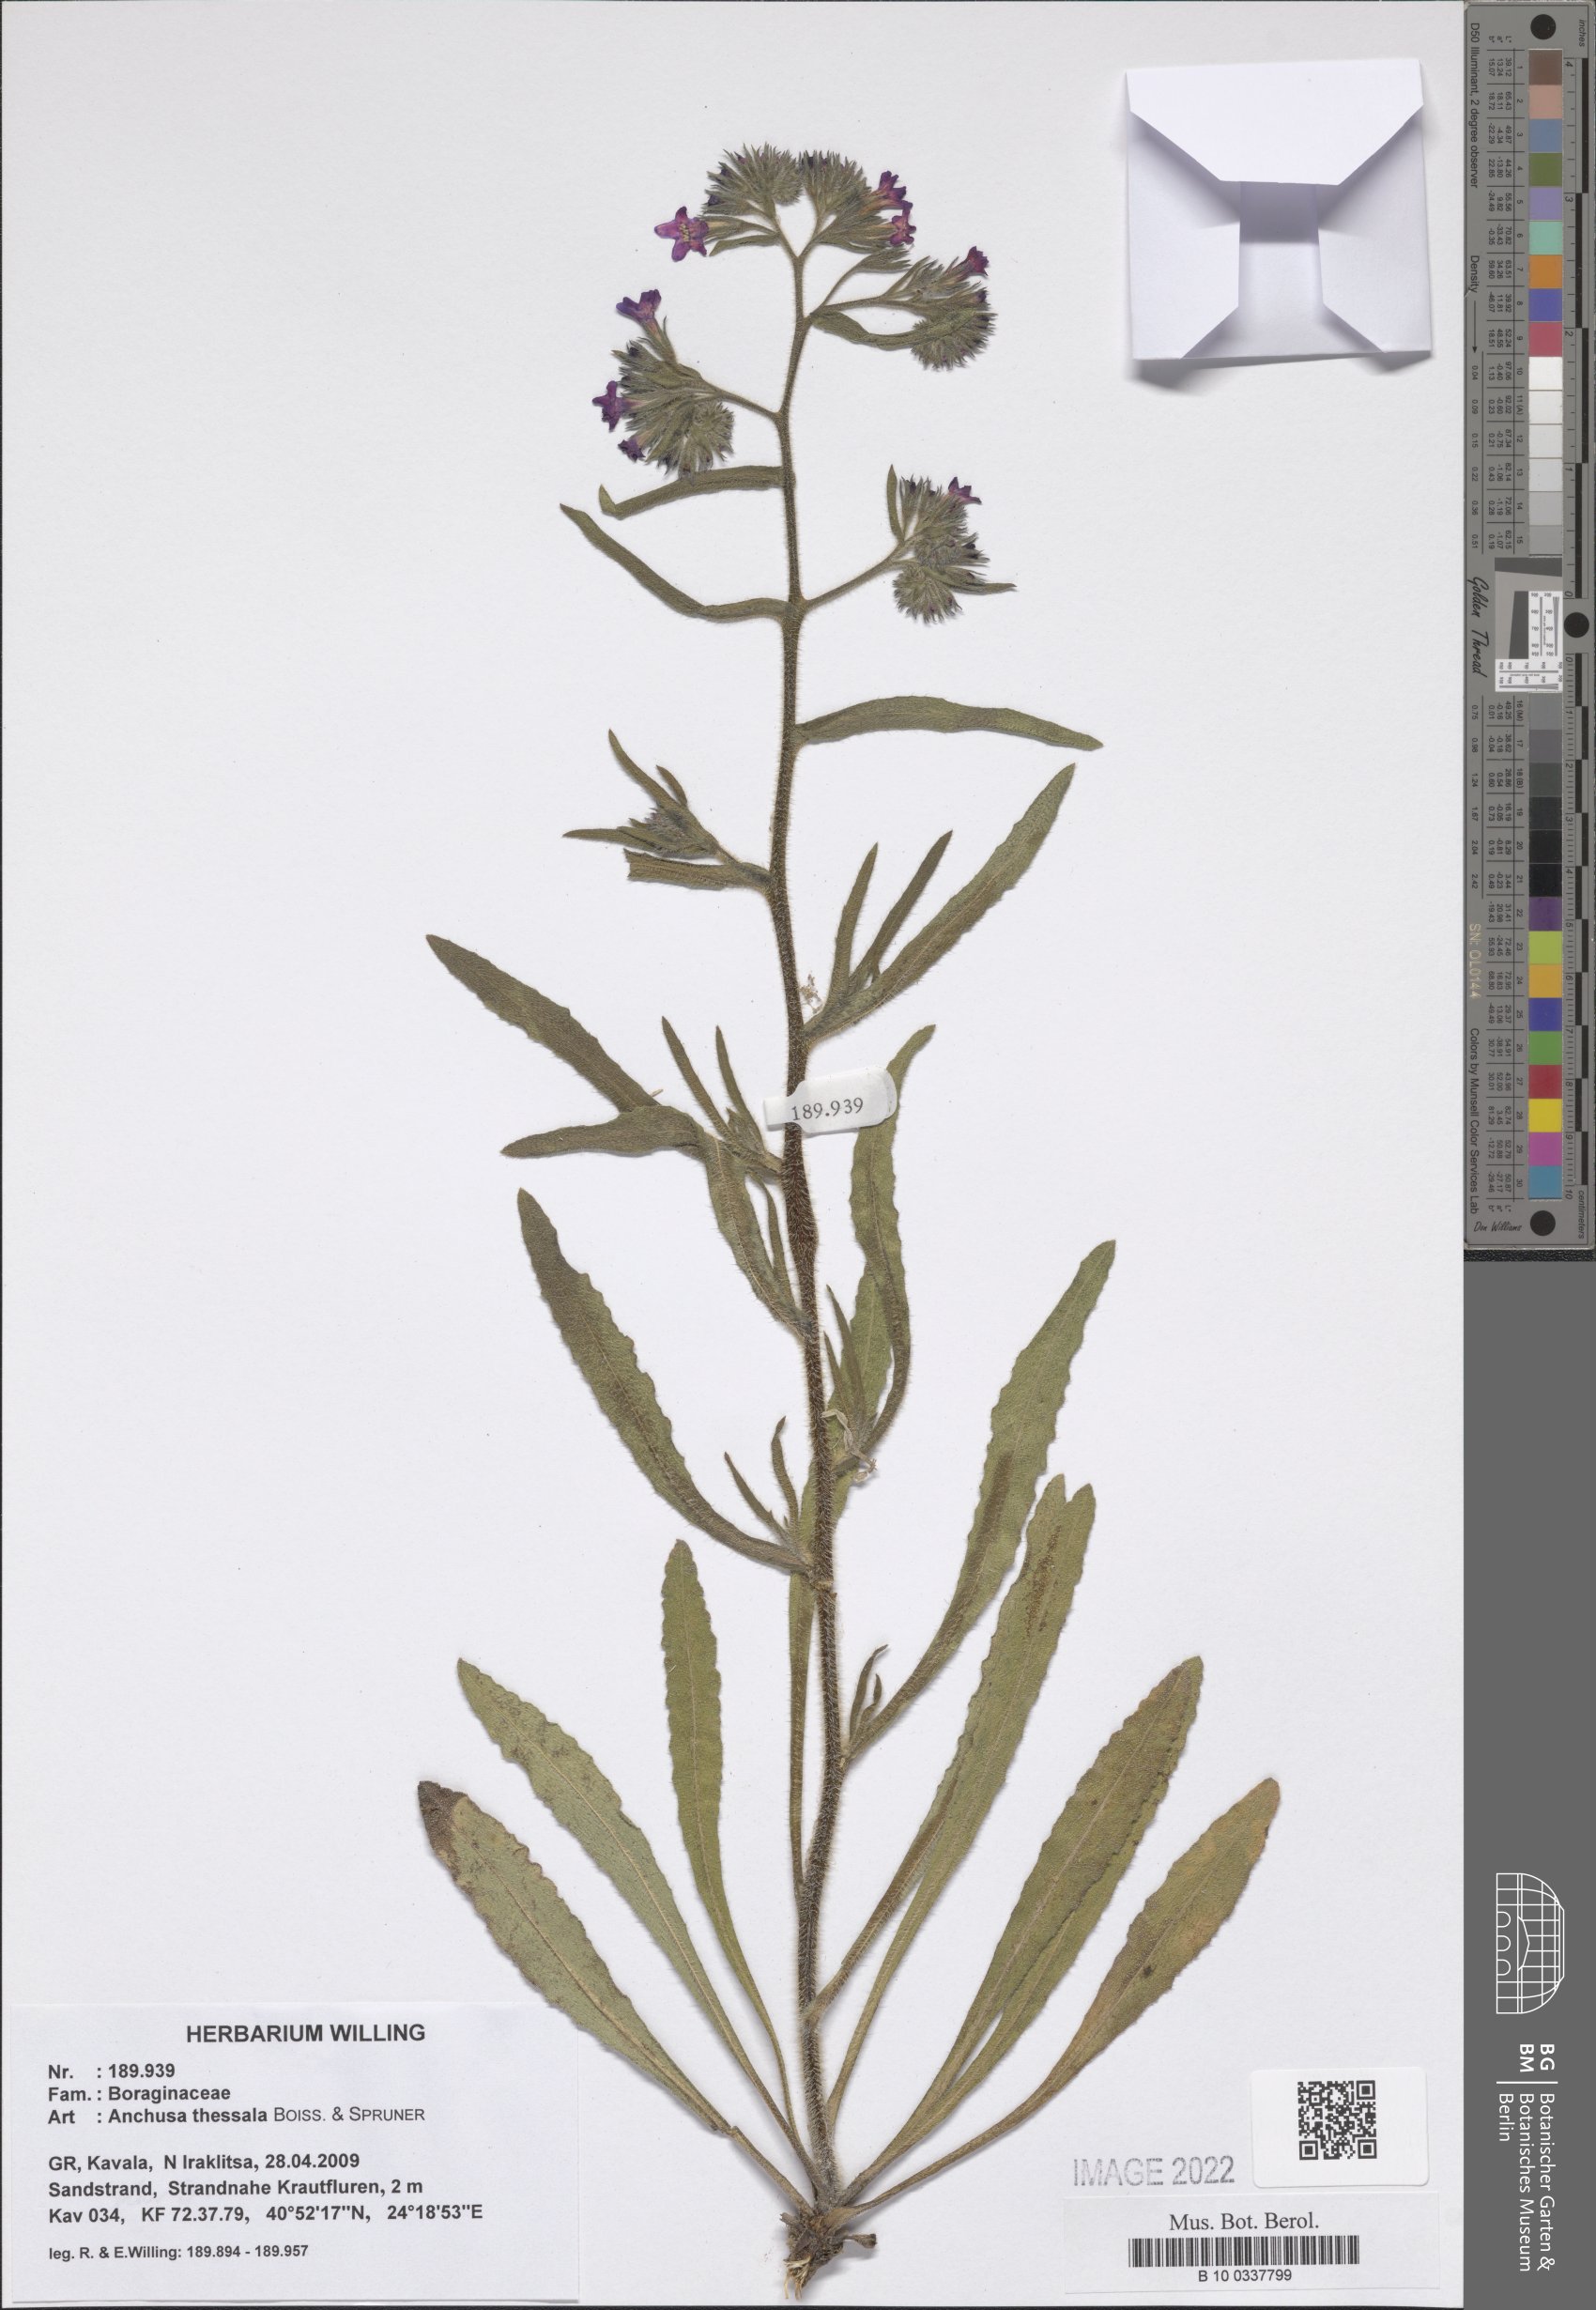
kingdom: Plantae
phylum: Tracheophyta
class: Magnoliopsida
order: Boraginales
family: Boraginaceae
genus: Anchusa
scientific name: Anchusa thessala
